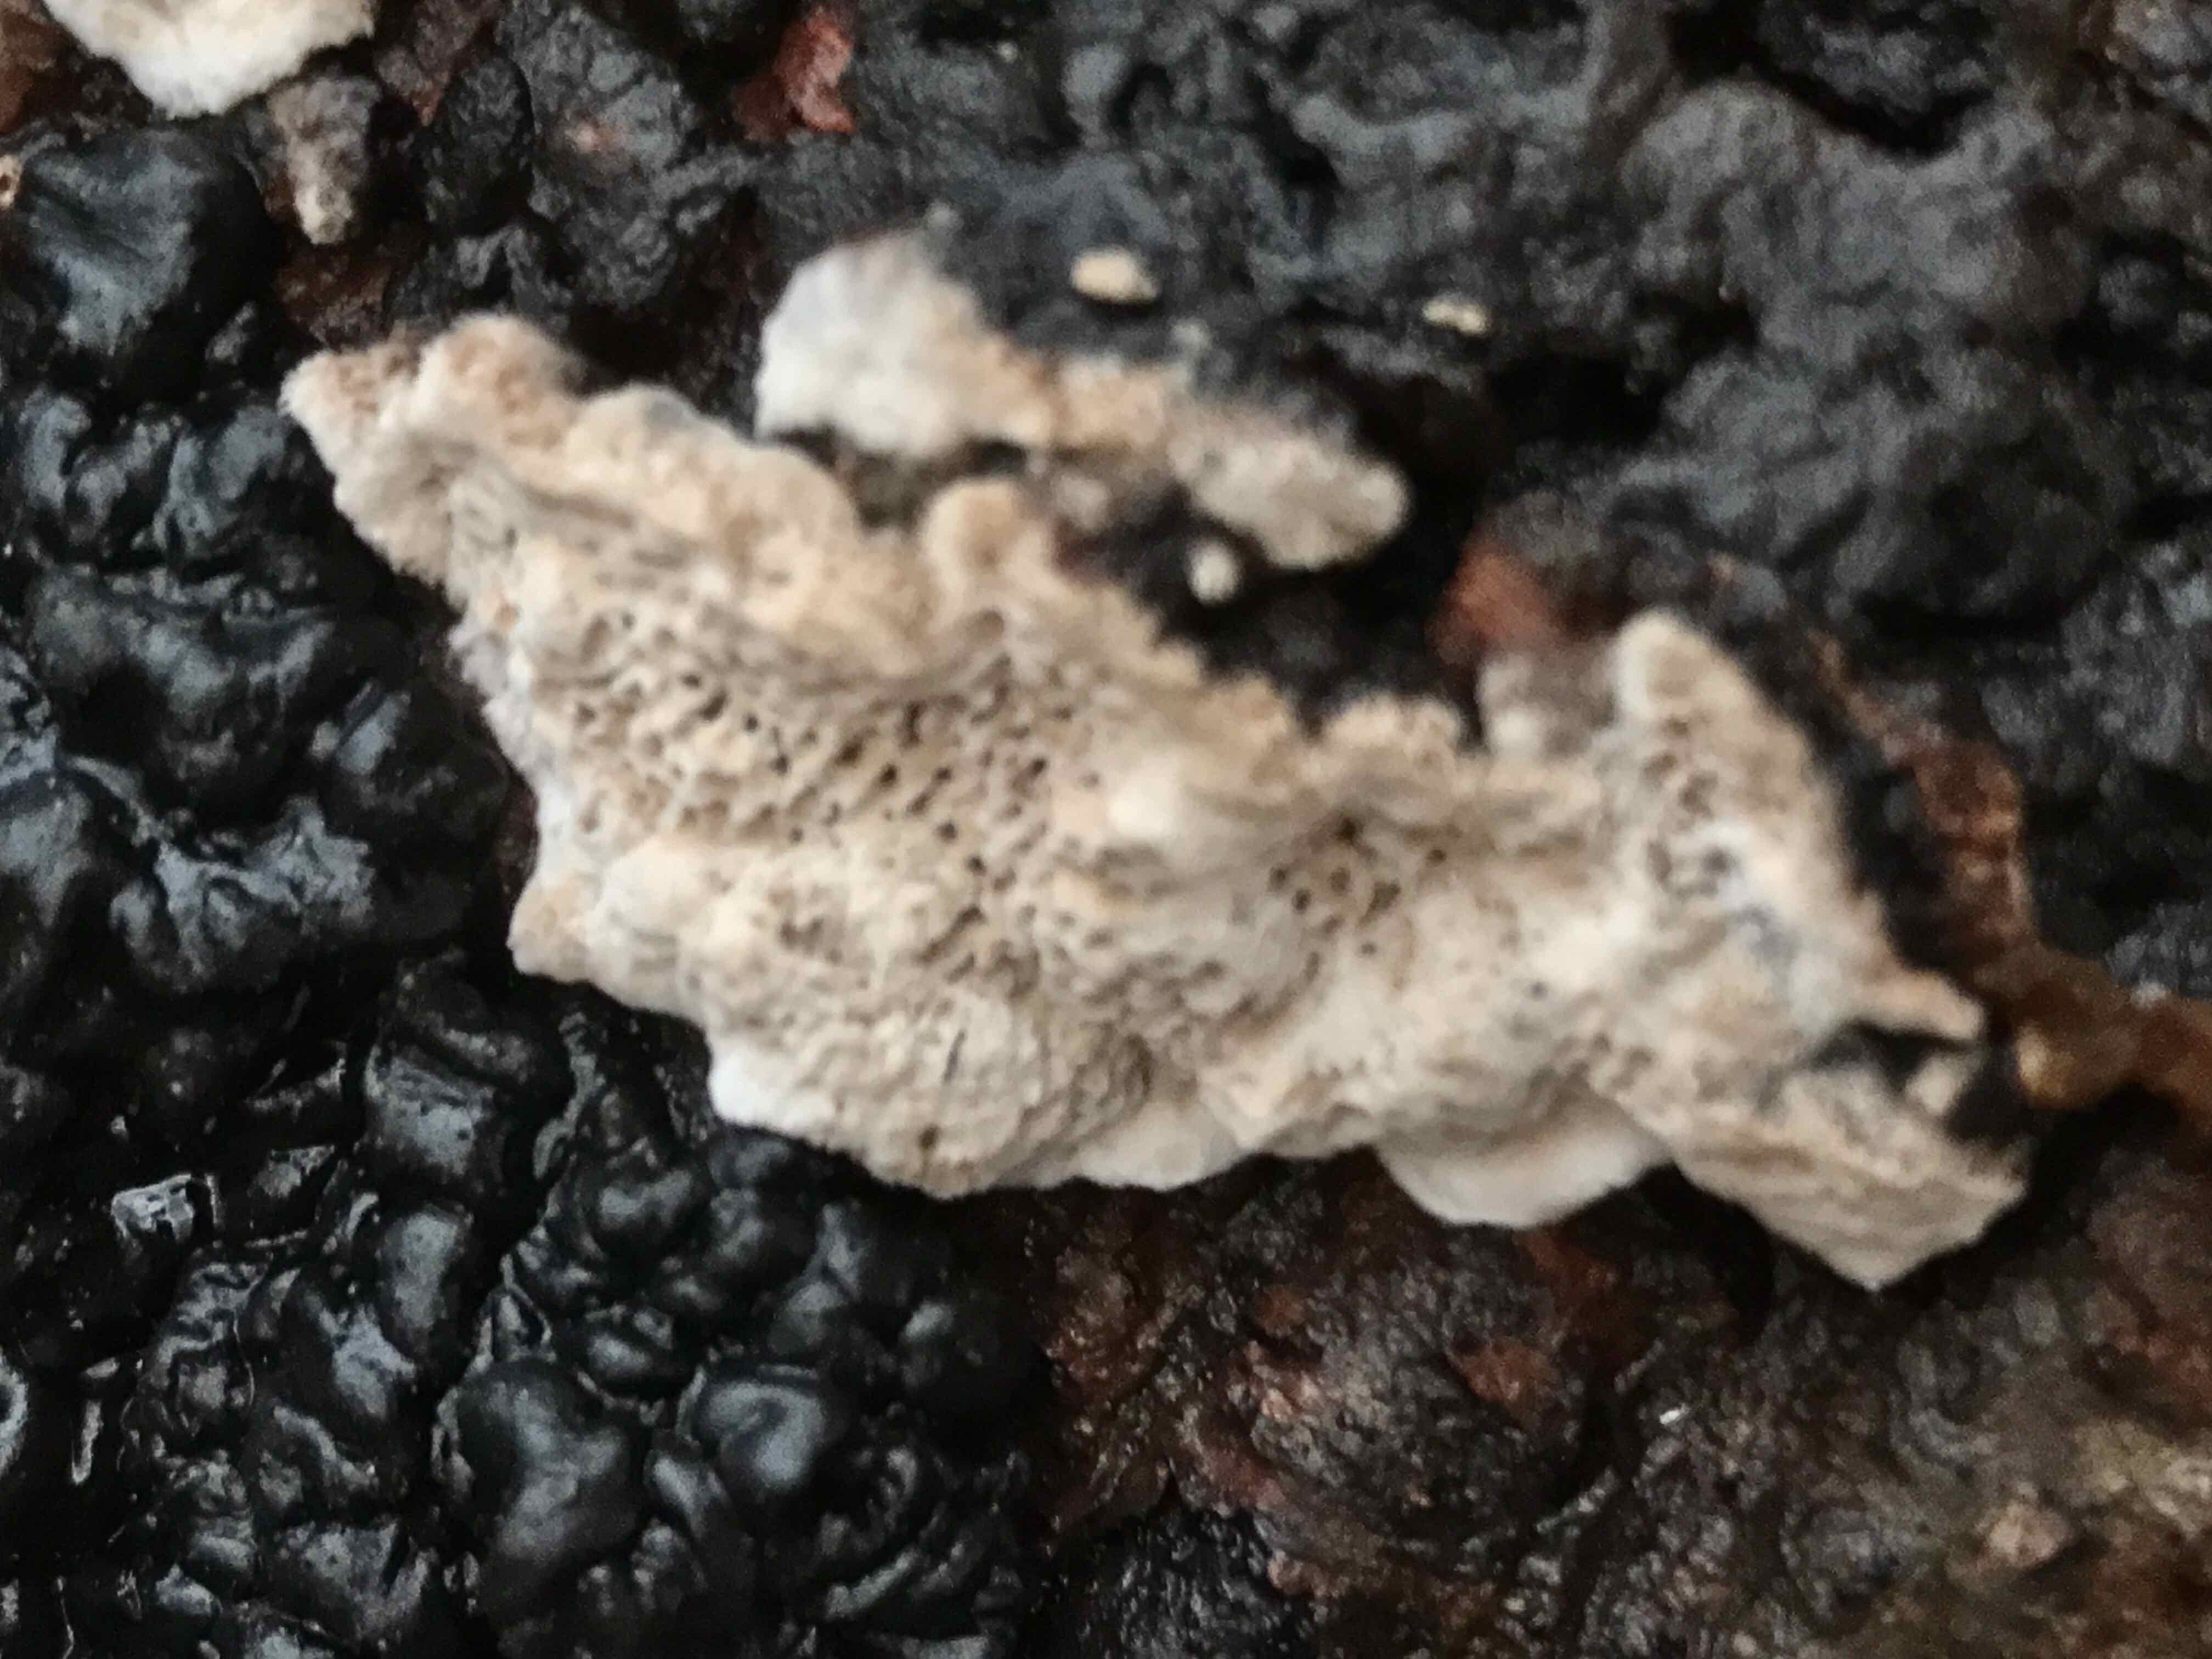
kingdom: Fungi
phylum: Basidiomycota
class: Agaricomycetes
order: Polyporales
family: Polyporaceae
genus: Podofomes
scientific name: Podofomes mollis
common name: blød begporesvamp
